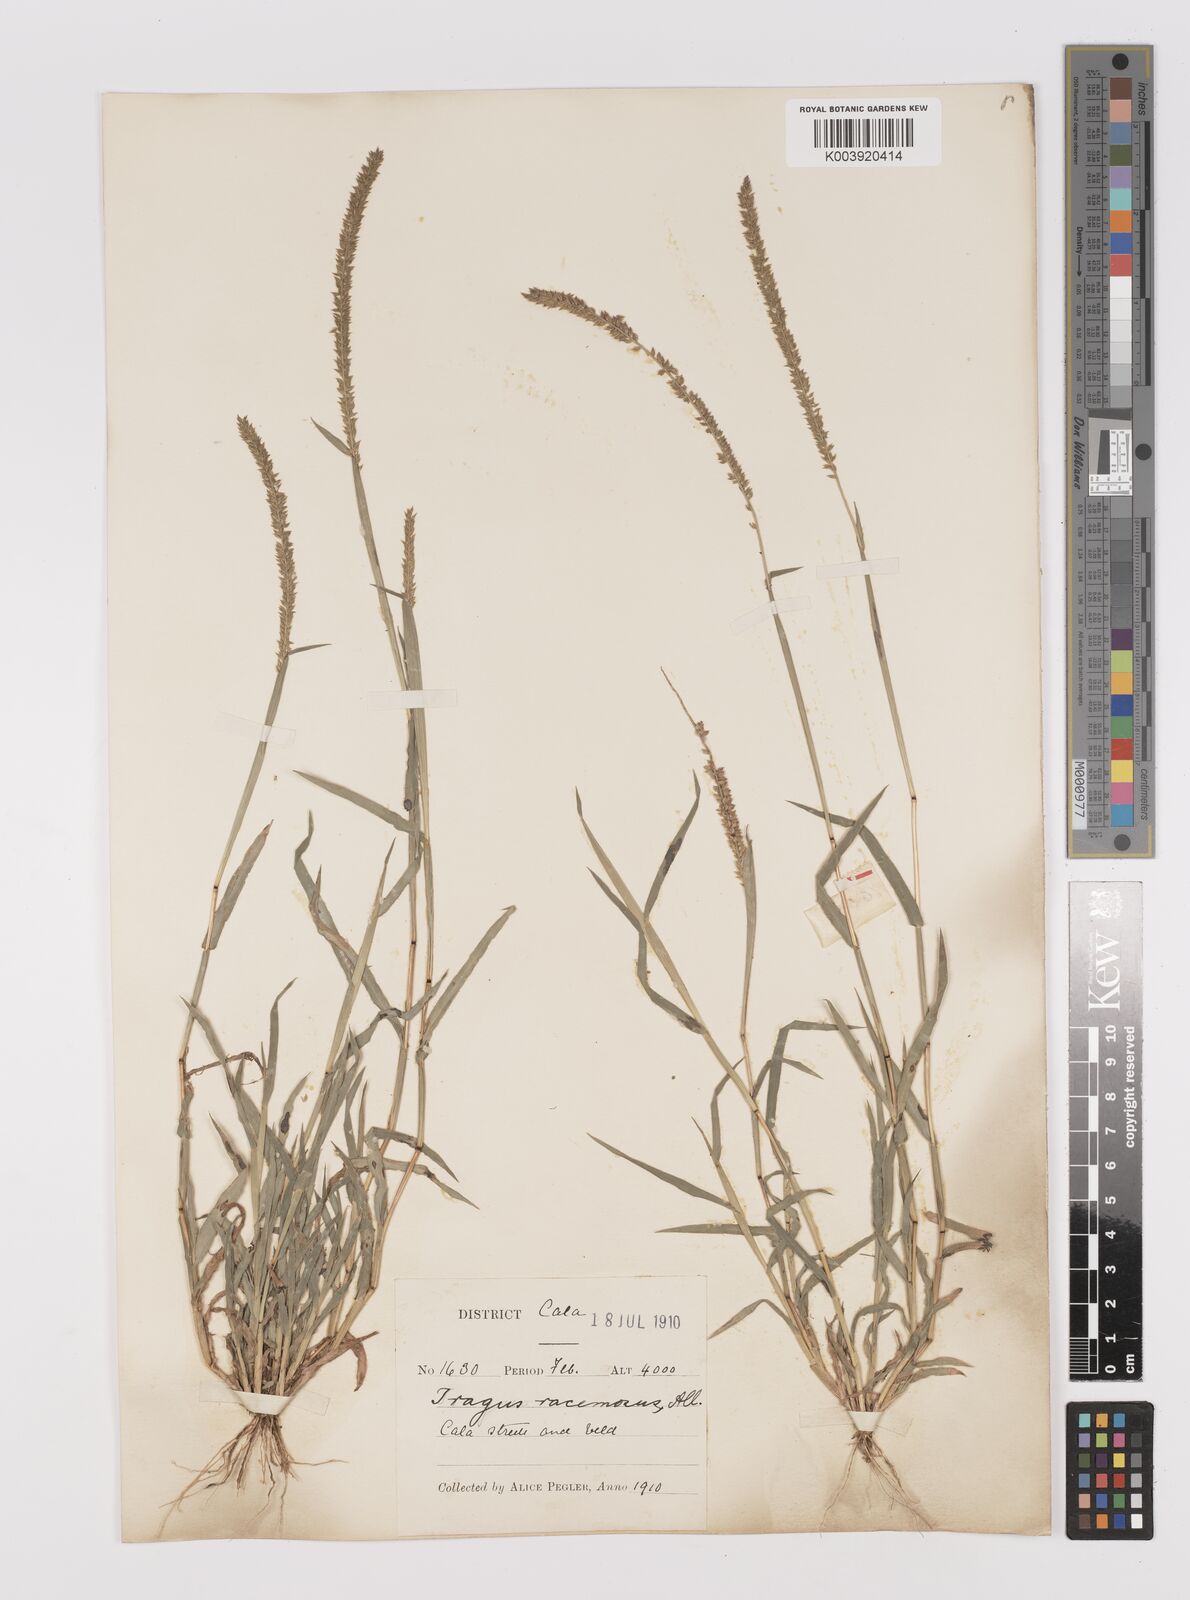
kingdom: Plantae
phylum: Tracheophyta
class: Liliopsida
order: Poales
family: Poaceae
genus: Tragus
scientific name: Tragus berteronianus
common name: African bur-grass
